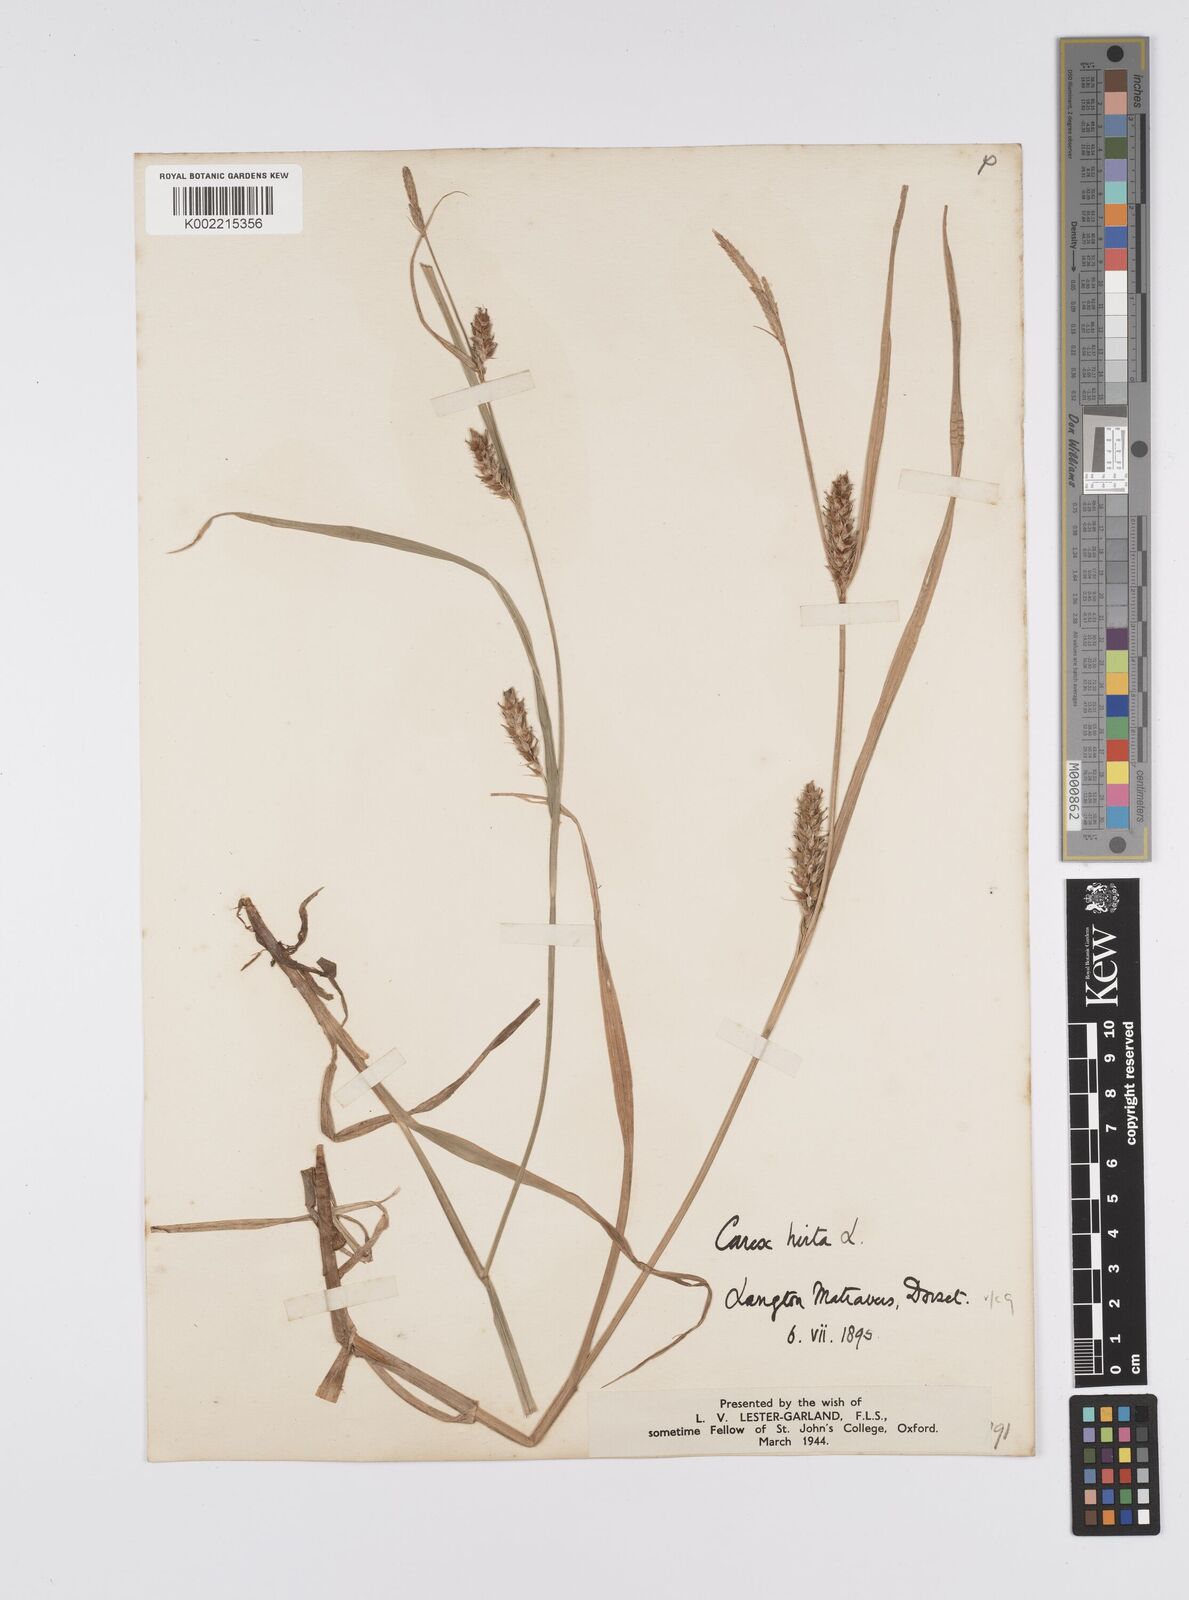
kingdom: Plantae
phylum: Tracheophyta
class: Liliopsida
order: Poales
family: Cyperaceae
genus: Carex
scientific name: Carex hirta
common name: Hairy sedge
